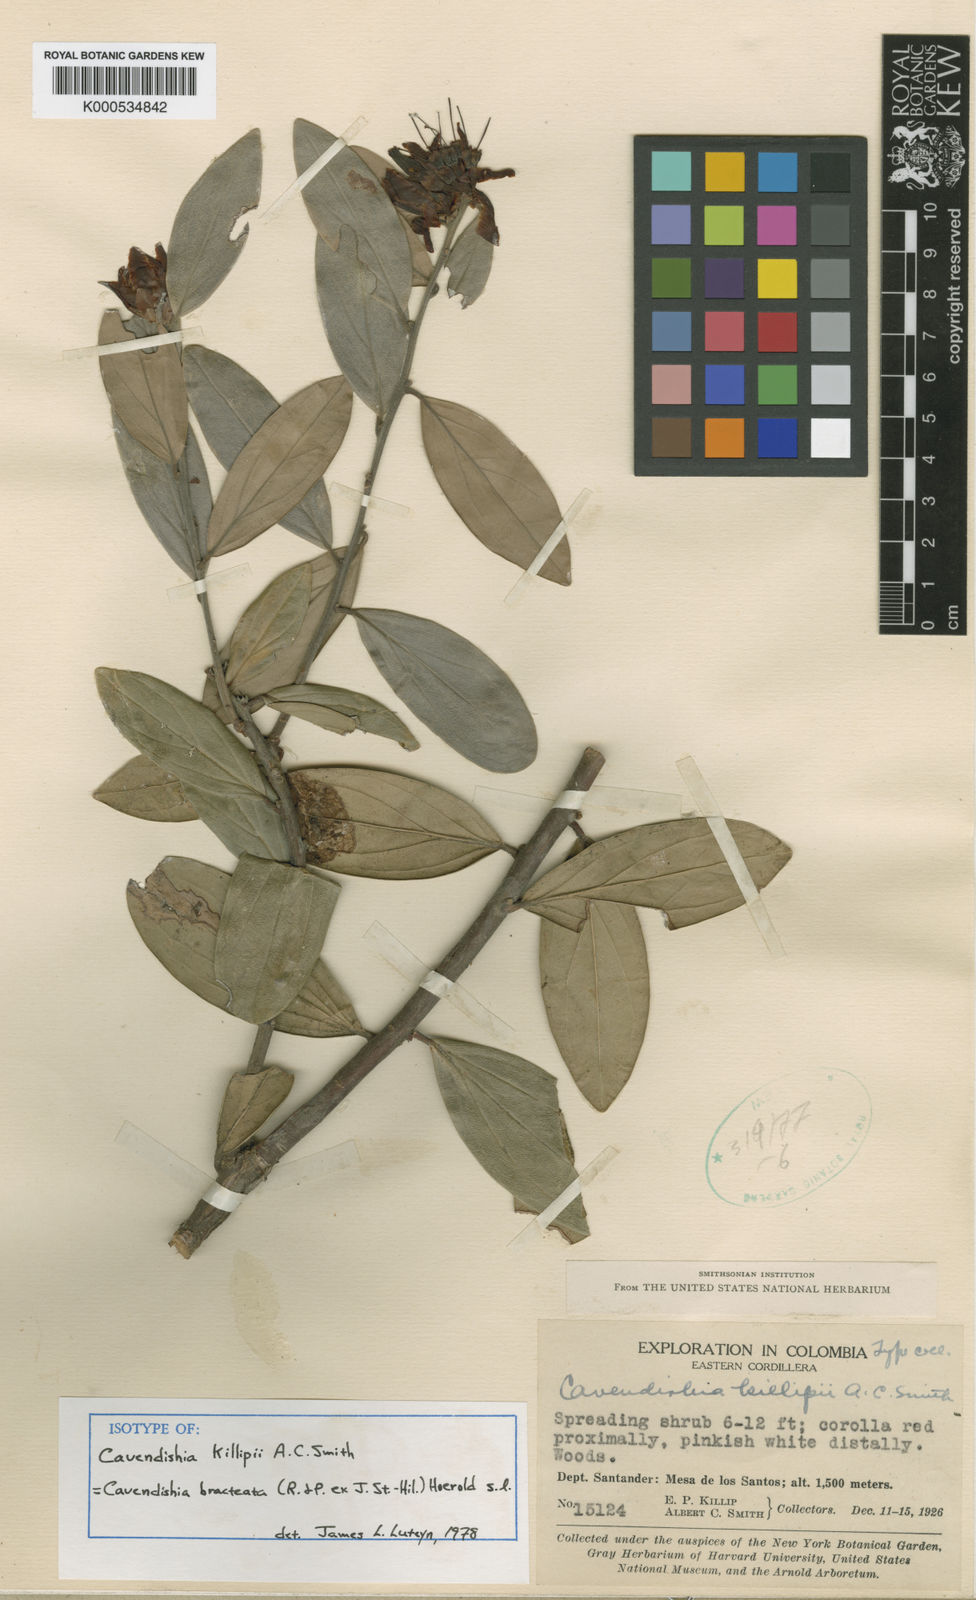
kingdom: Plantae
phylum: Tracheophyta
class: Magnoliopsida
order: Ericales
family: Ericaceae
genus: Cavendishia
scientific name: Cavendishia bracteata
